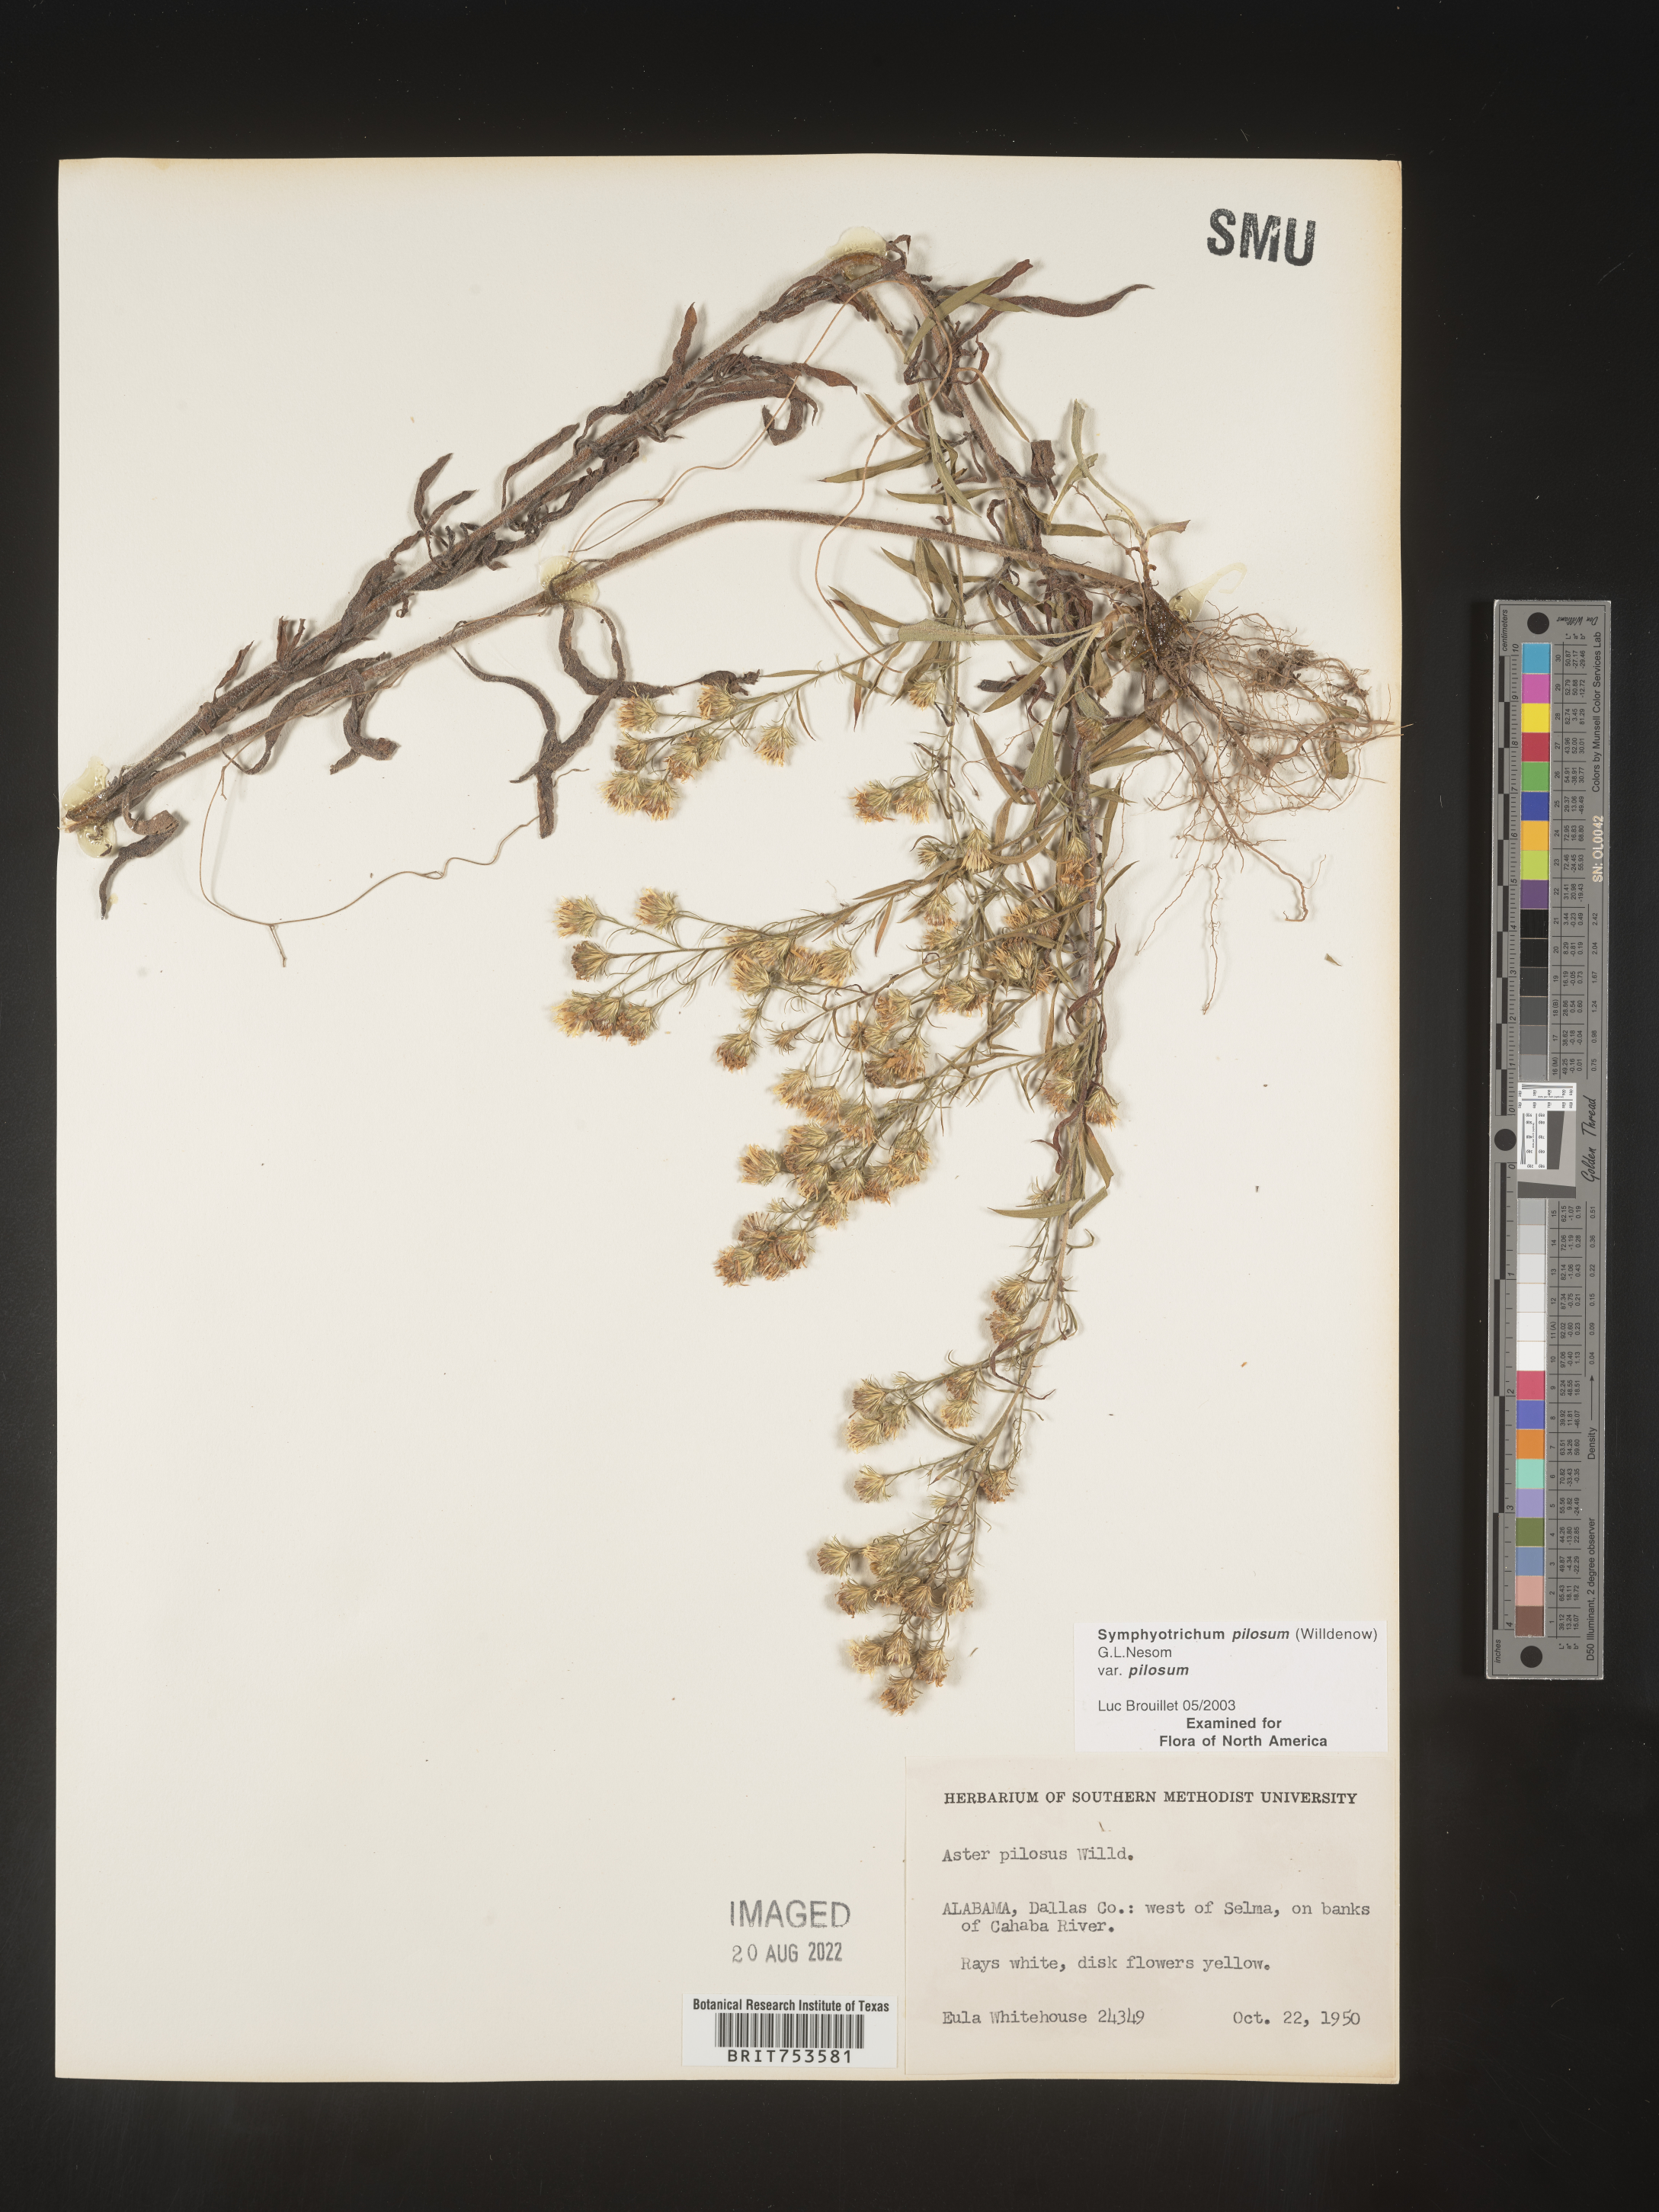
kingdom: Plantae
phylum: Tracheophyta
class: Magnoliopsida
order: Asterales
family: Asteraceae
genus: Symphyotrichum
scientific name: Symphyotrichum pilosum
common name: Awl aster
